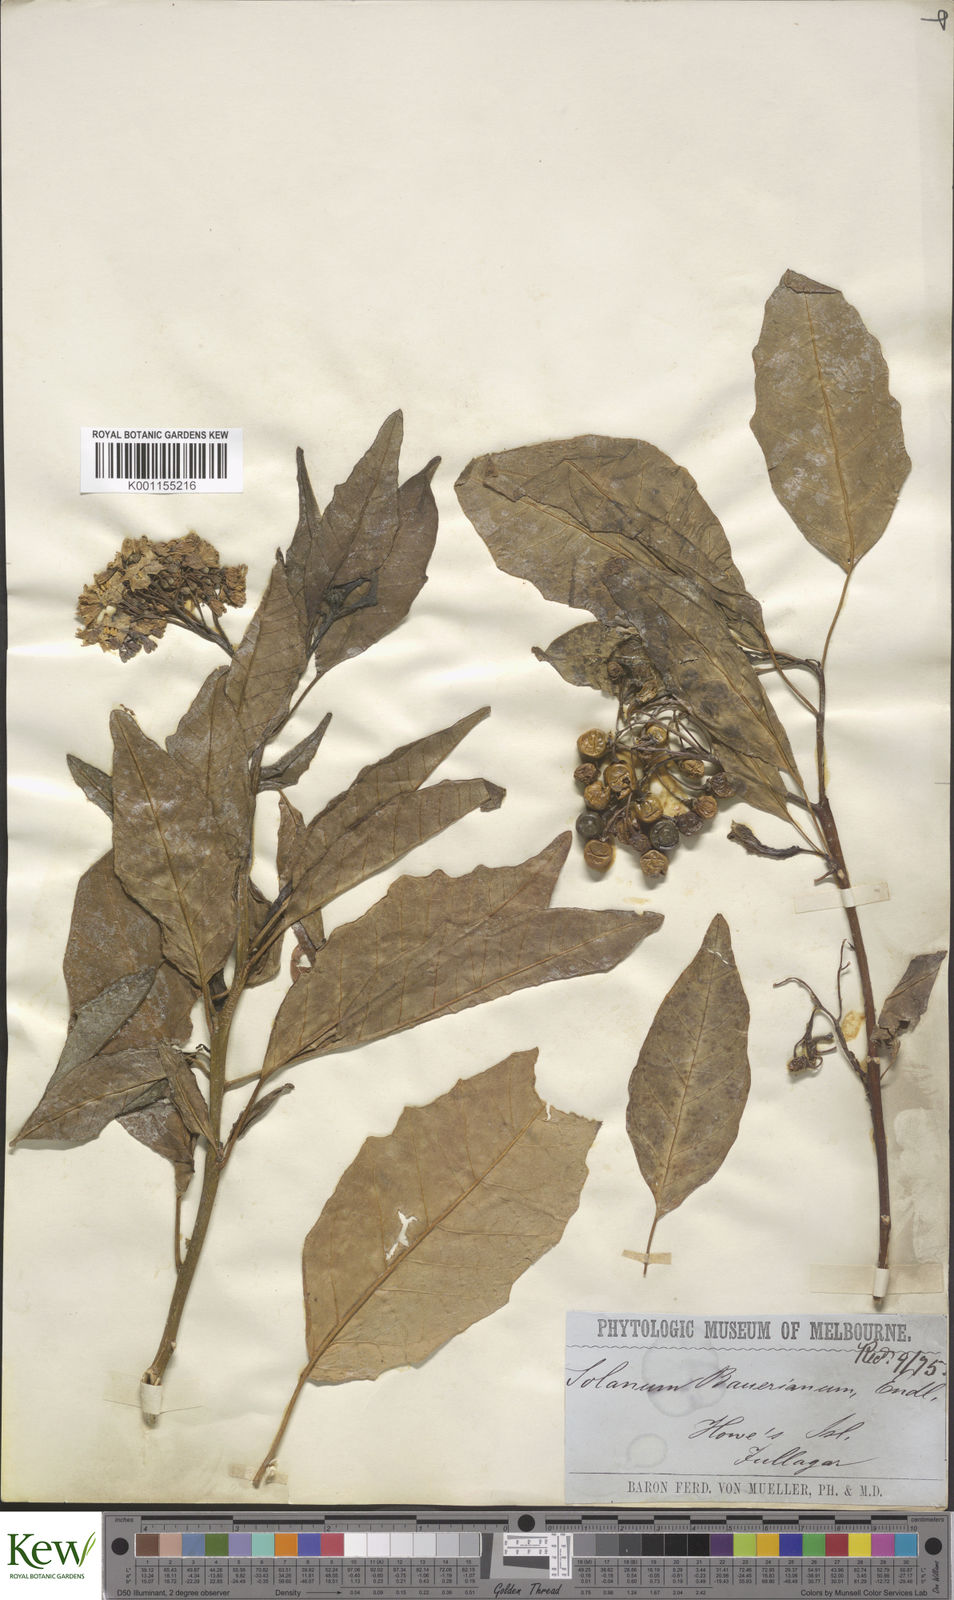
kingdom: Plantae
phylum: Tracheophyta
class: Magnoliopsida
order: Solanales
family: Solanaceae
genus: Solanum
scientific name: Solanum bauerianum
